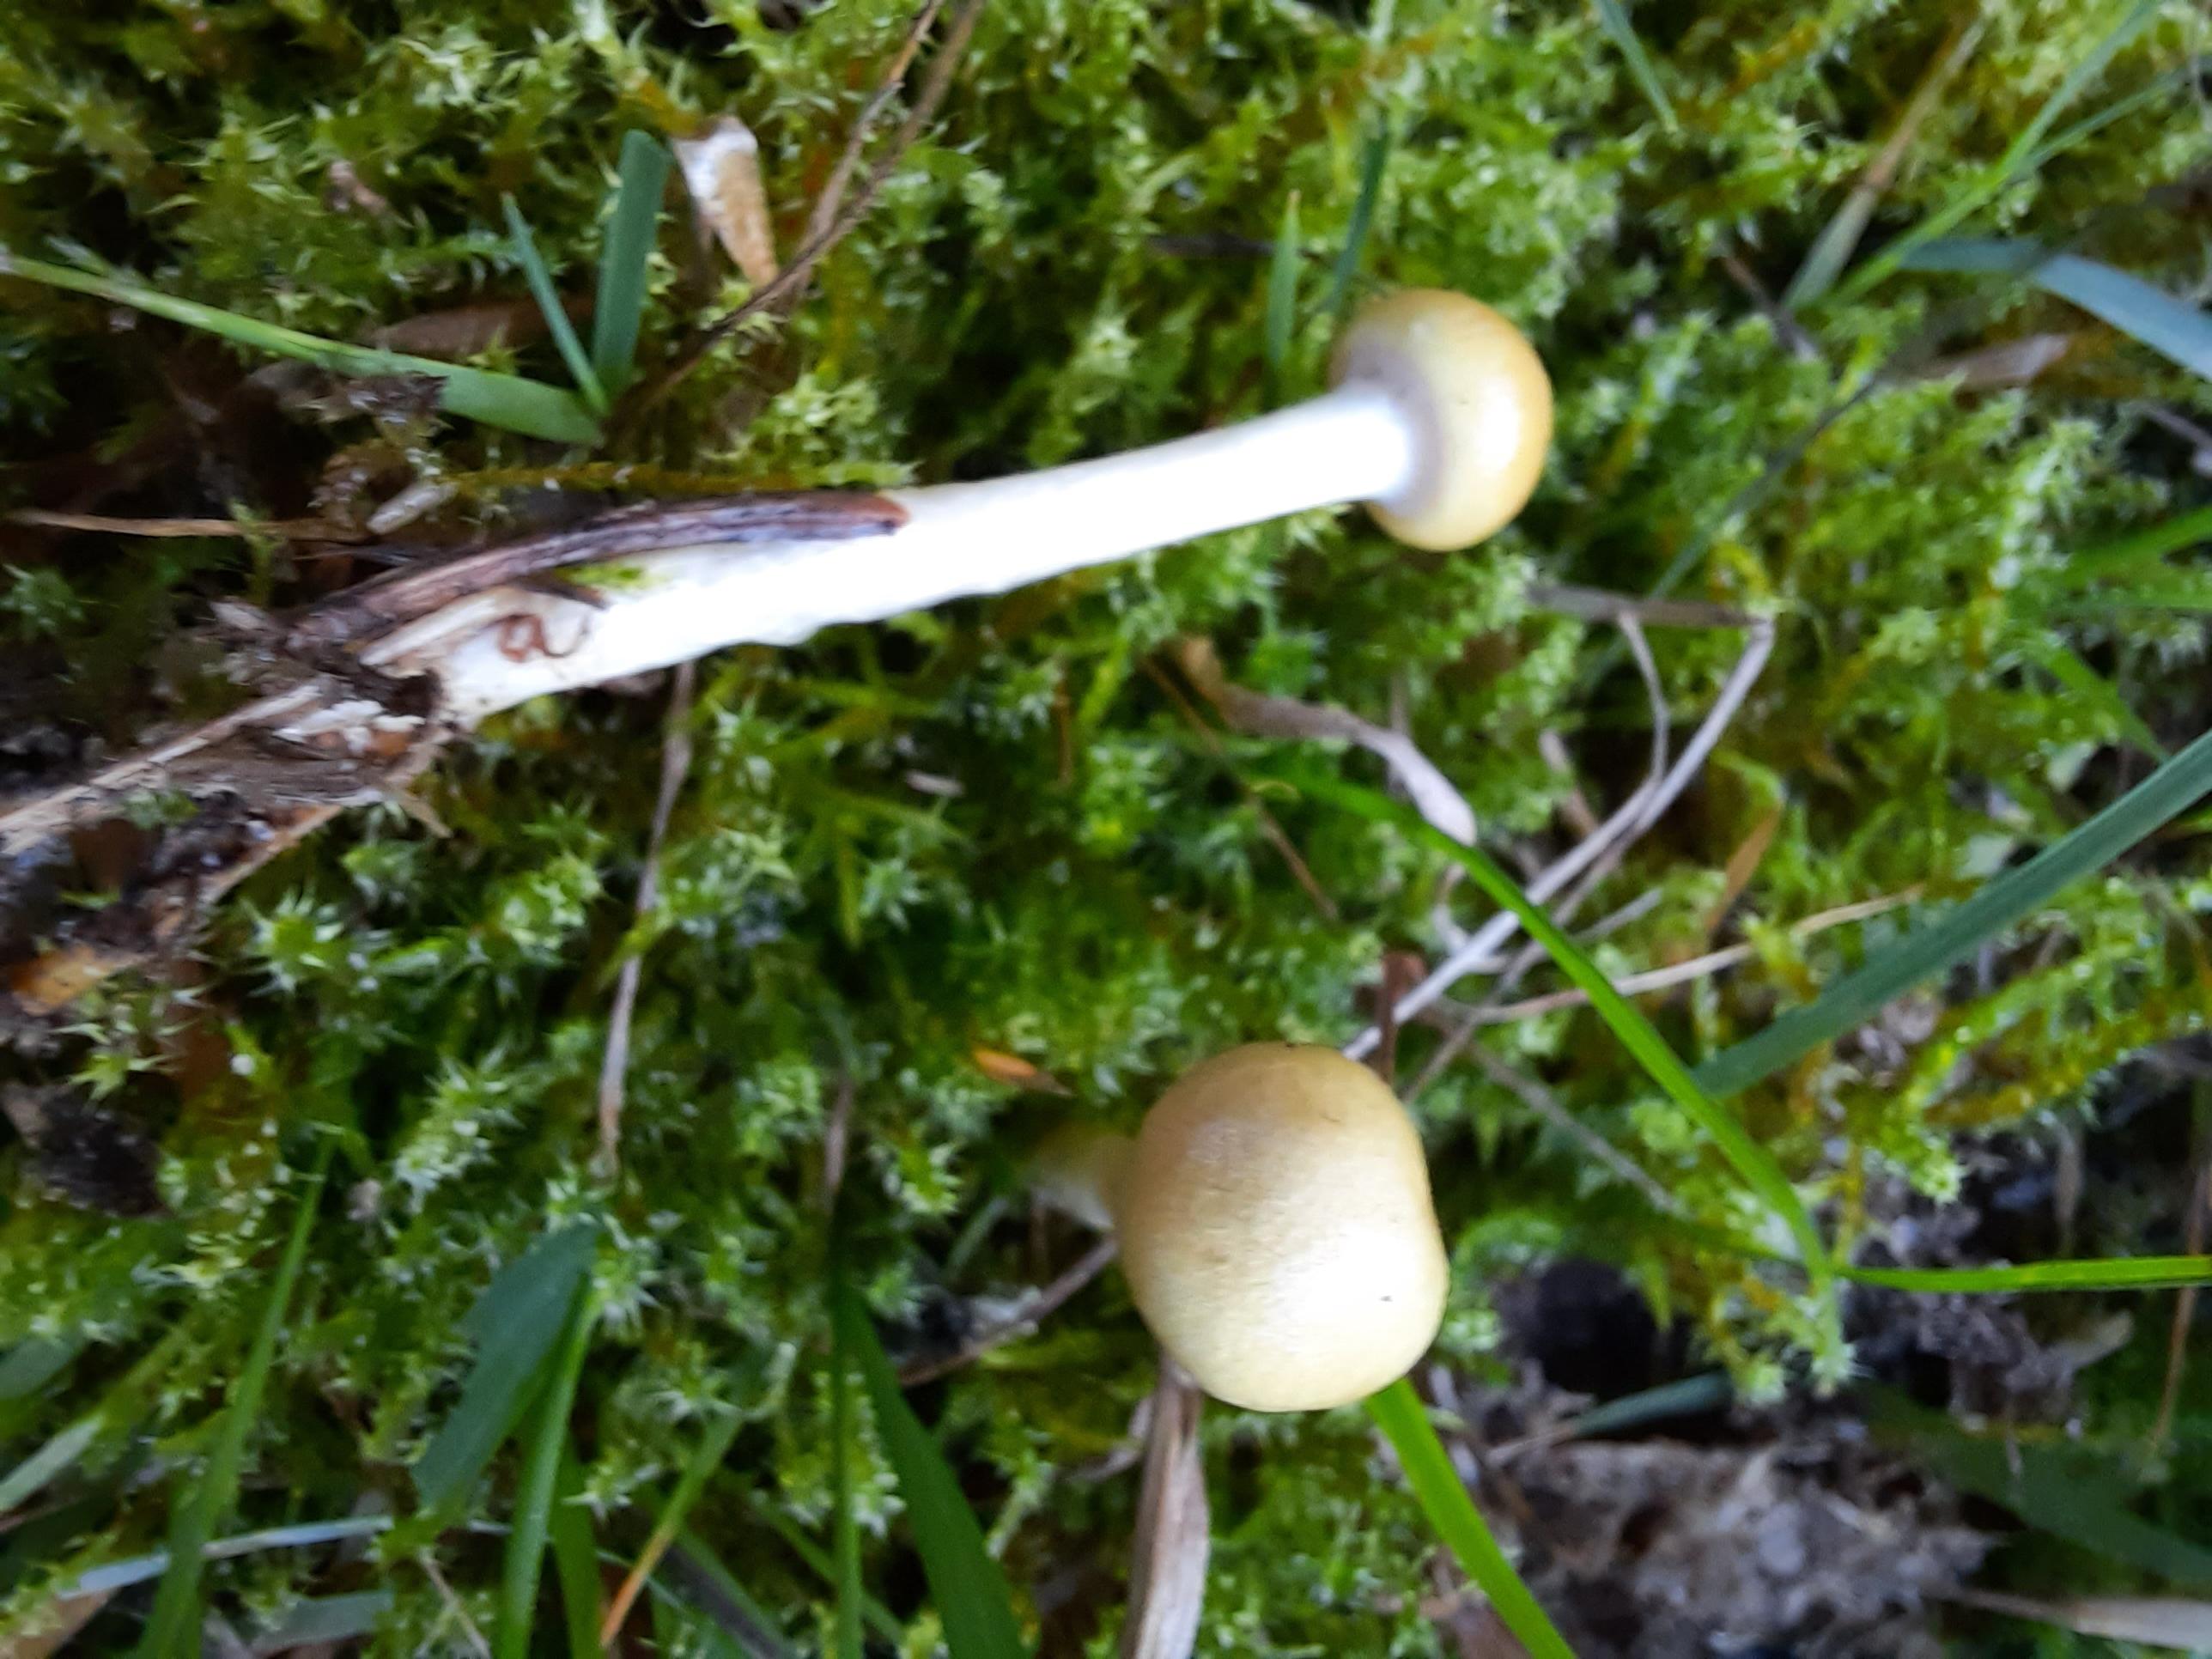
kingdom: Fungi
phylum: Basidiomycota
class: Agaricomycetes
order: Agaricales
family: Strophariaceae
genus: Protostropharia
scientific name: Protostropharia semiglobata
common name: halvkugleformet bredblad
